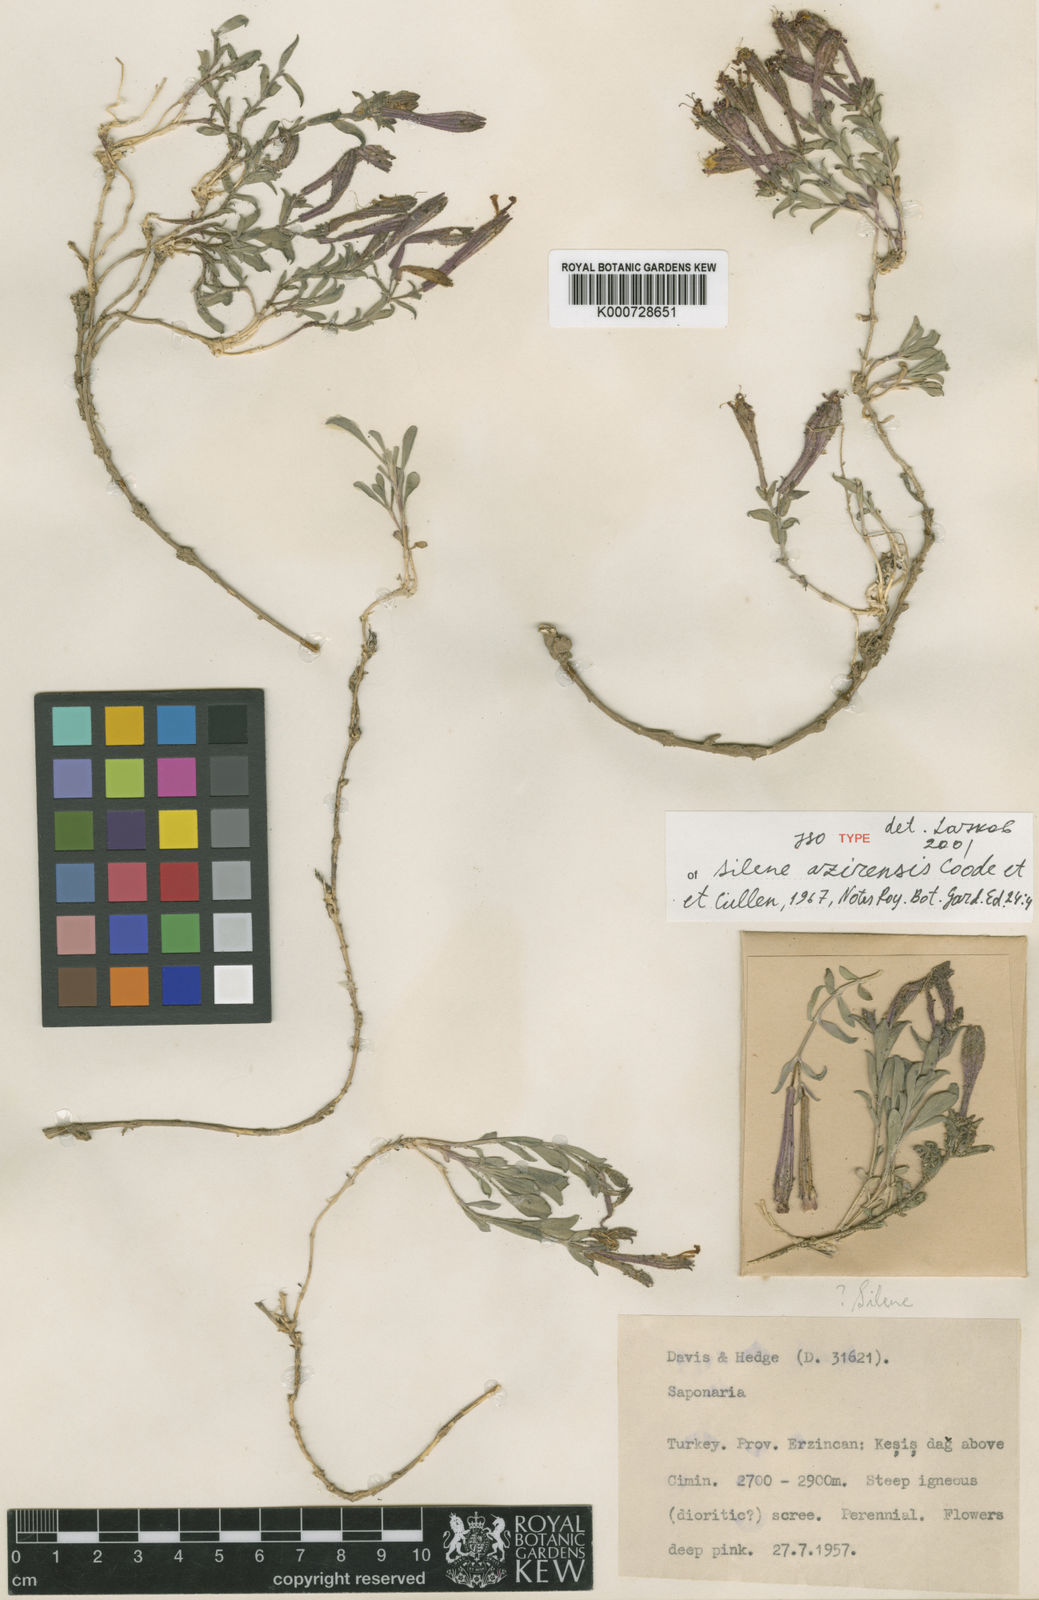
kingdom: Plantae
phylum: Tracheophyta
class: Magnoliopsida
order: Caryophyllales
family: Caryophyllaceae
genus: Silene
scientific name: Silene azirensis
